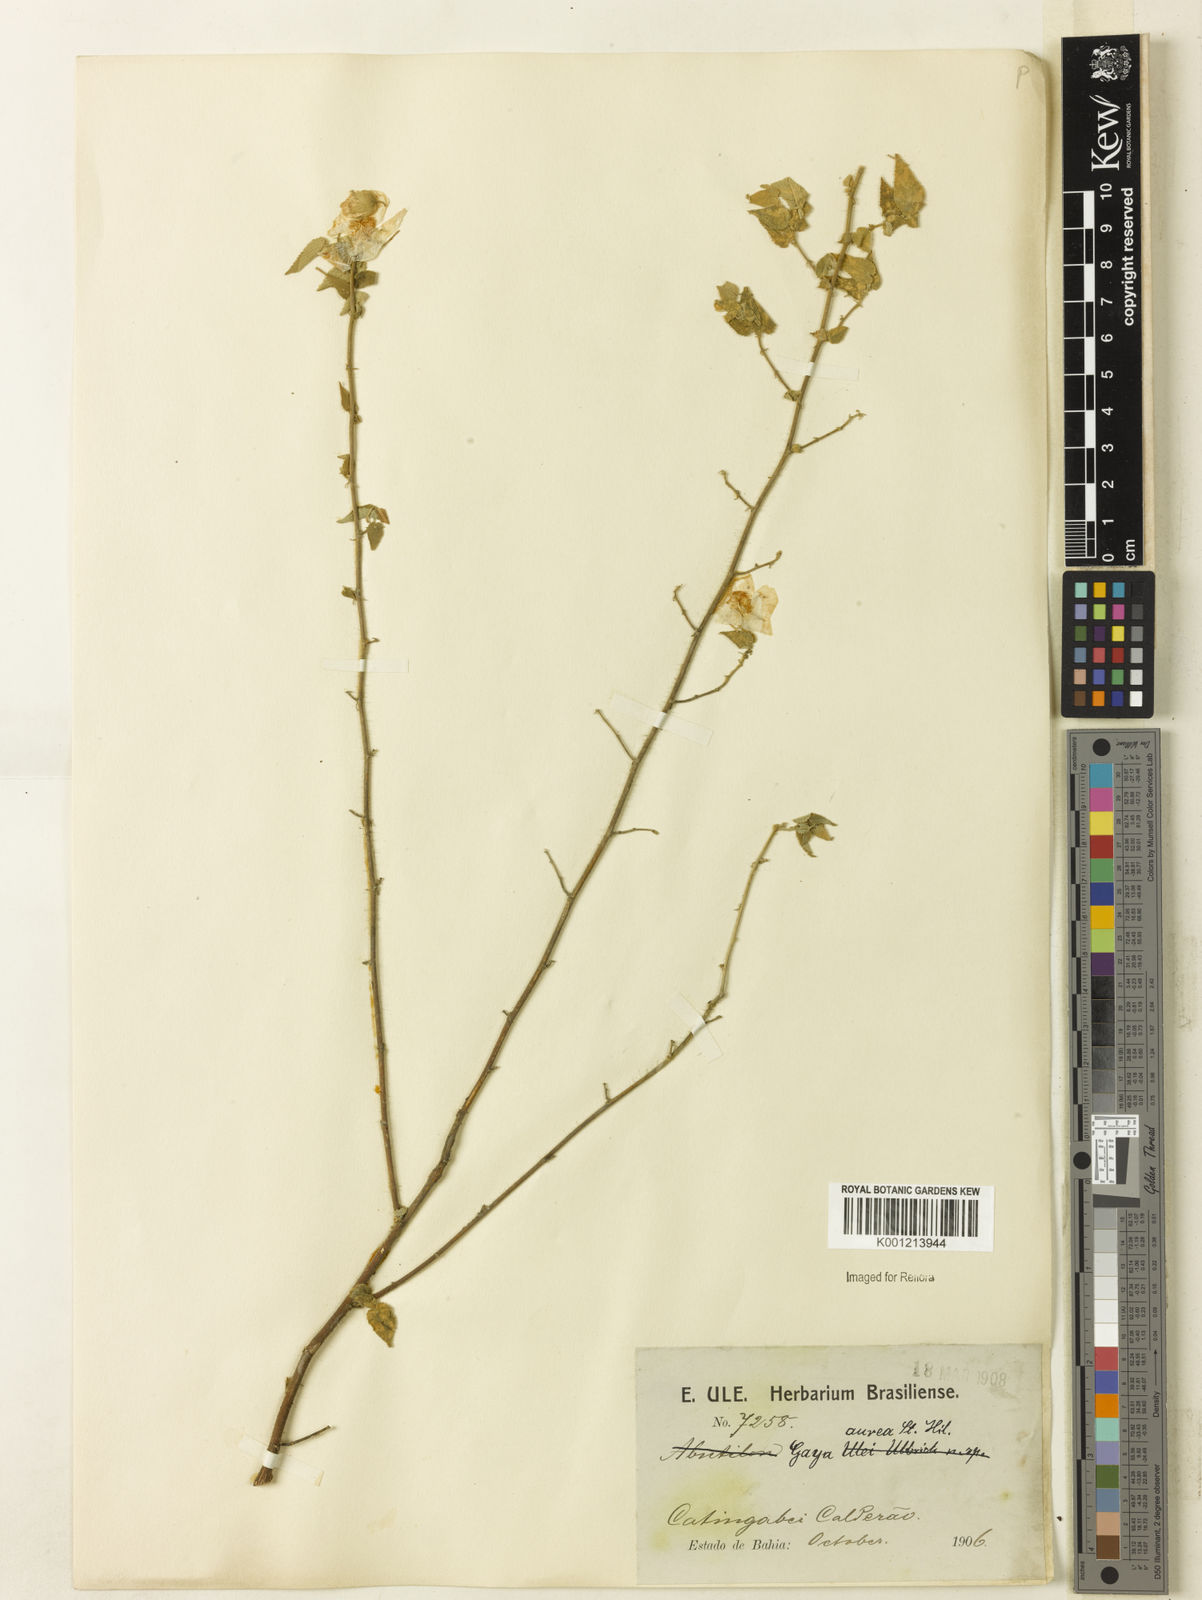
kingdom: Plantae
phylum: Tracheophyta
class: Magnoliopsida
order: Malvales
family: Malvaceae
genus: Gaya
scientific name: Gaya aurea
